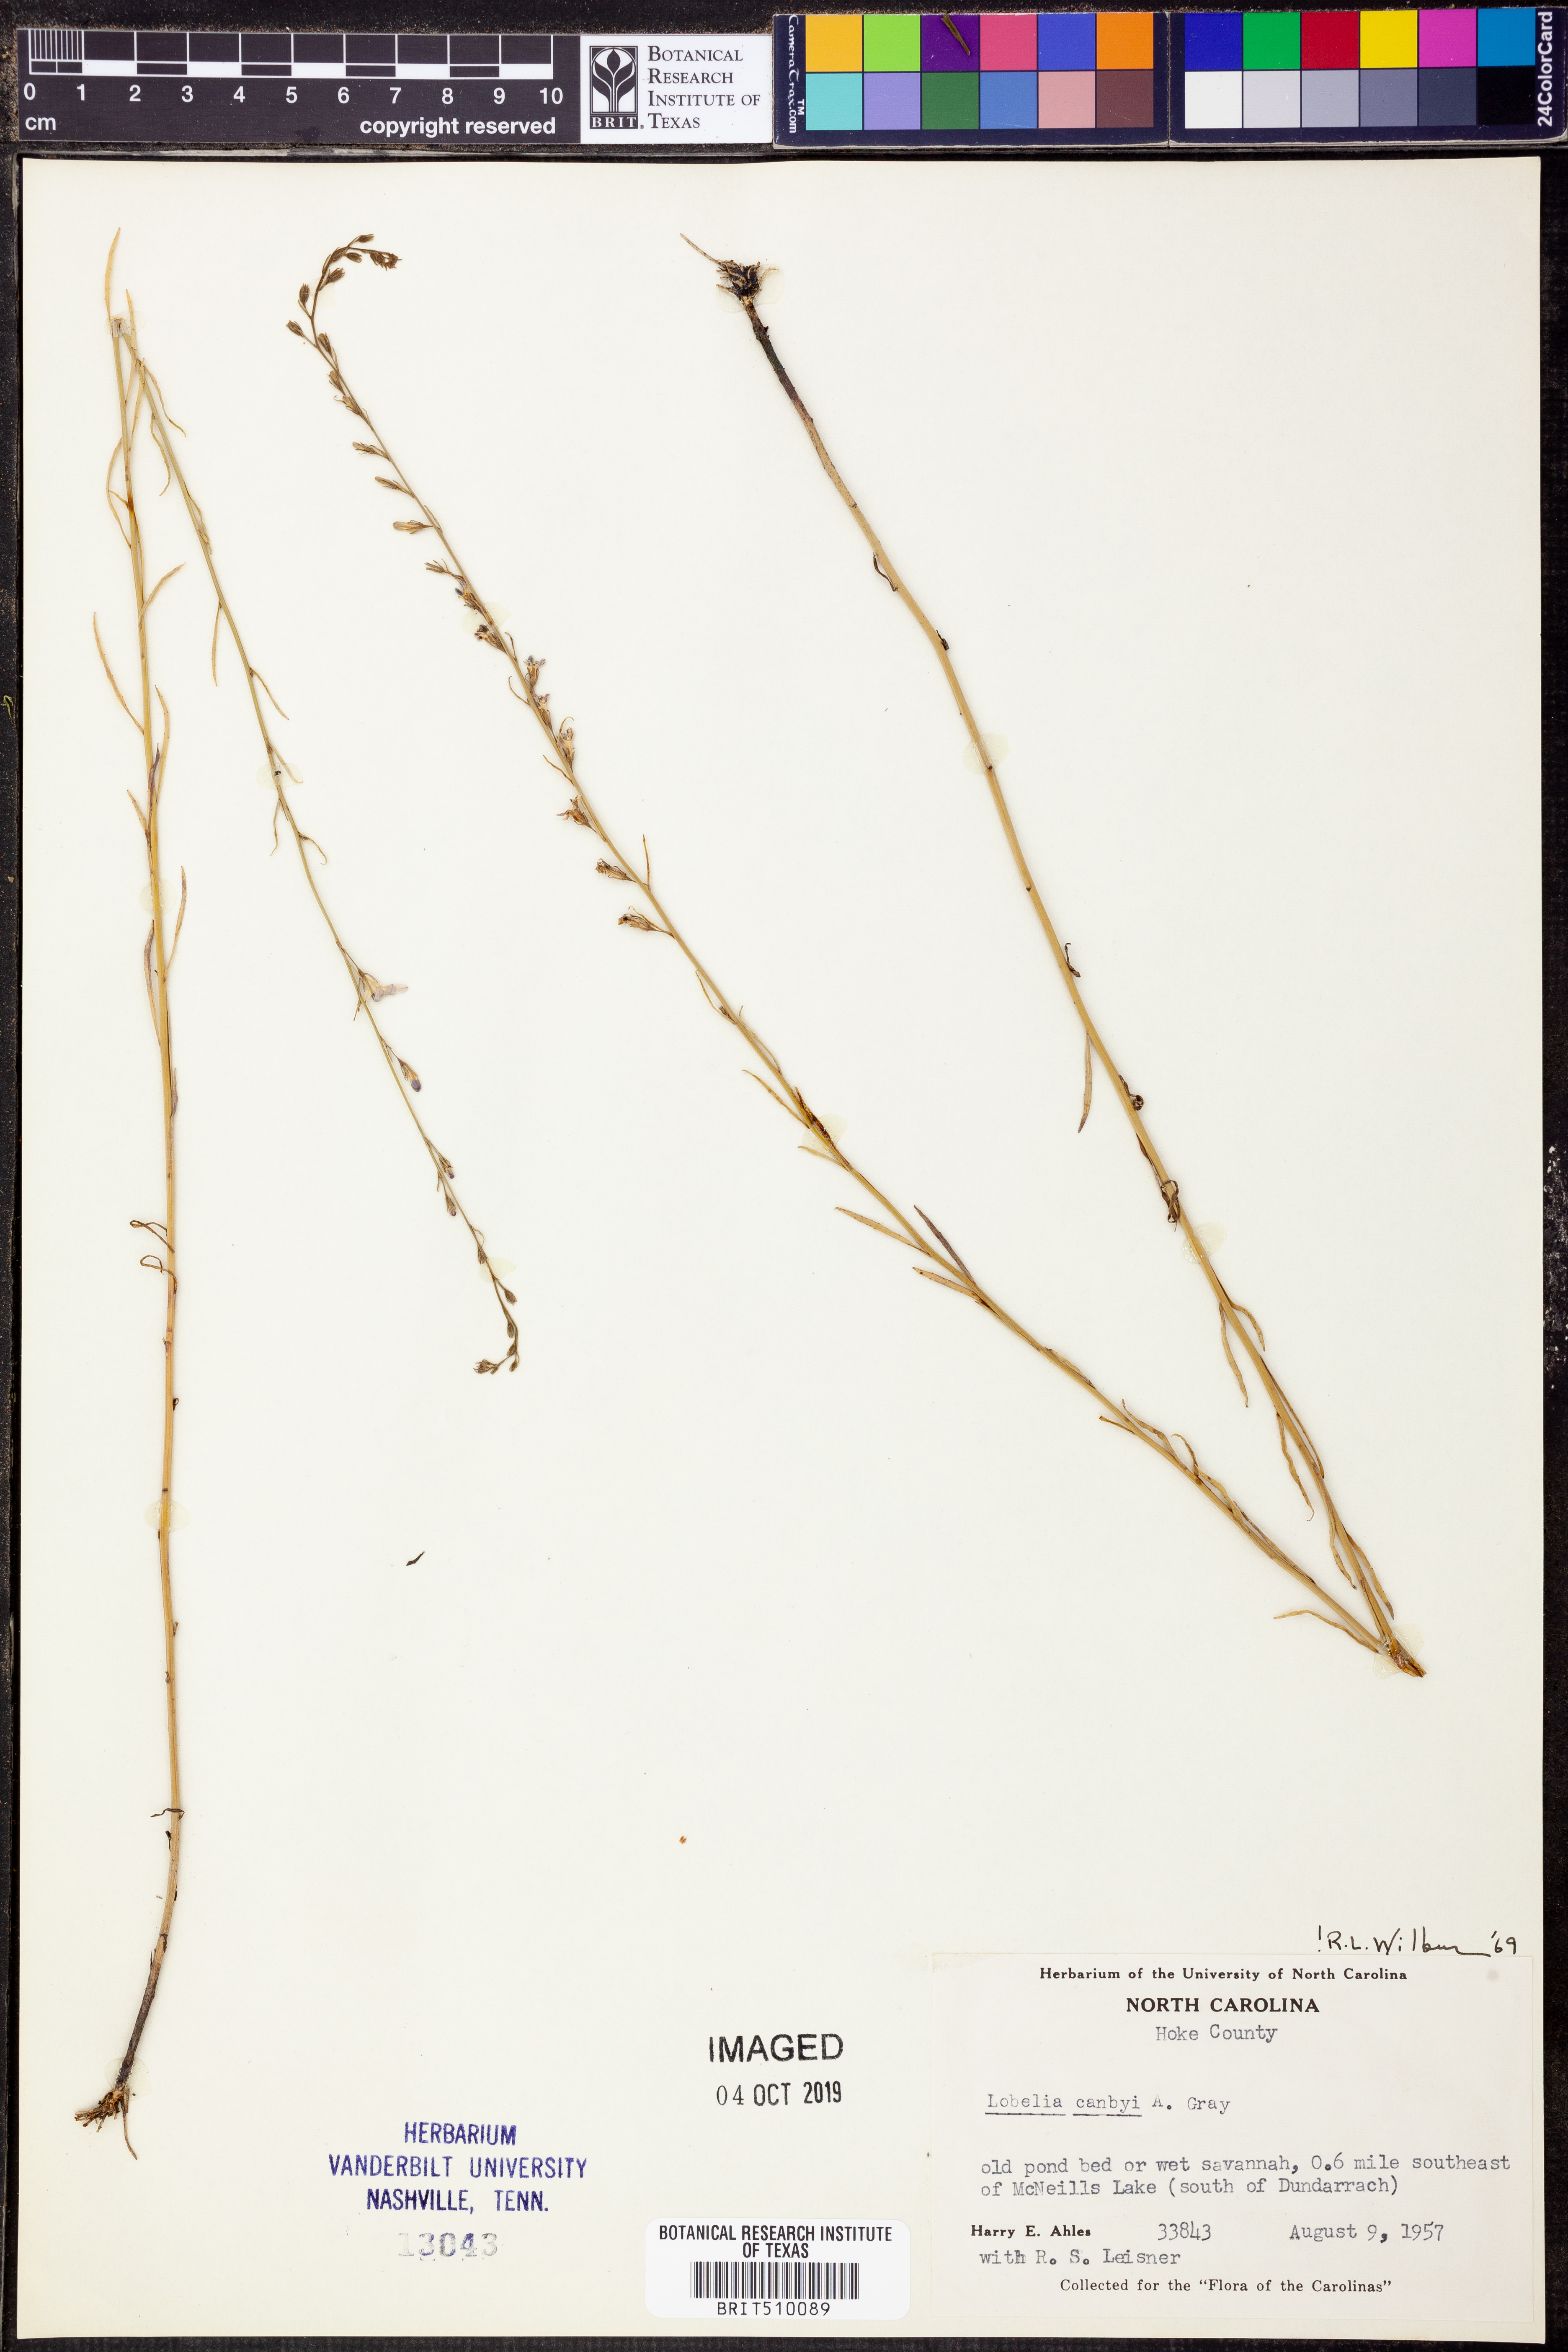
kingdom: Plantae
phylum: Tracheophyta
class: Magnoliopsida
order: Asterales
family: Campanulaceae
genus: Lobelia
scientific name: Lobelia canbyi
